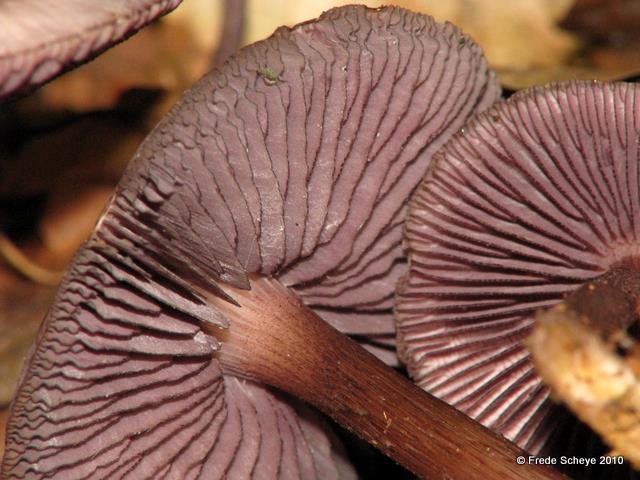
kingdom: Fungi
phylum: Basidiomycota
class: Agaricomycetes
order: Agaricales
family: Mycenaceae
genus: Mycena
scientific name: Mycena pelianthina
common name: mørkbladet huesvamp
